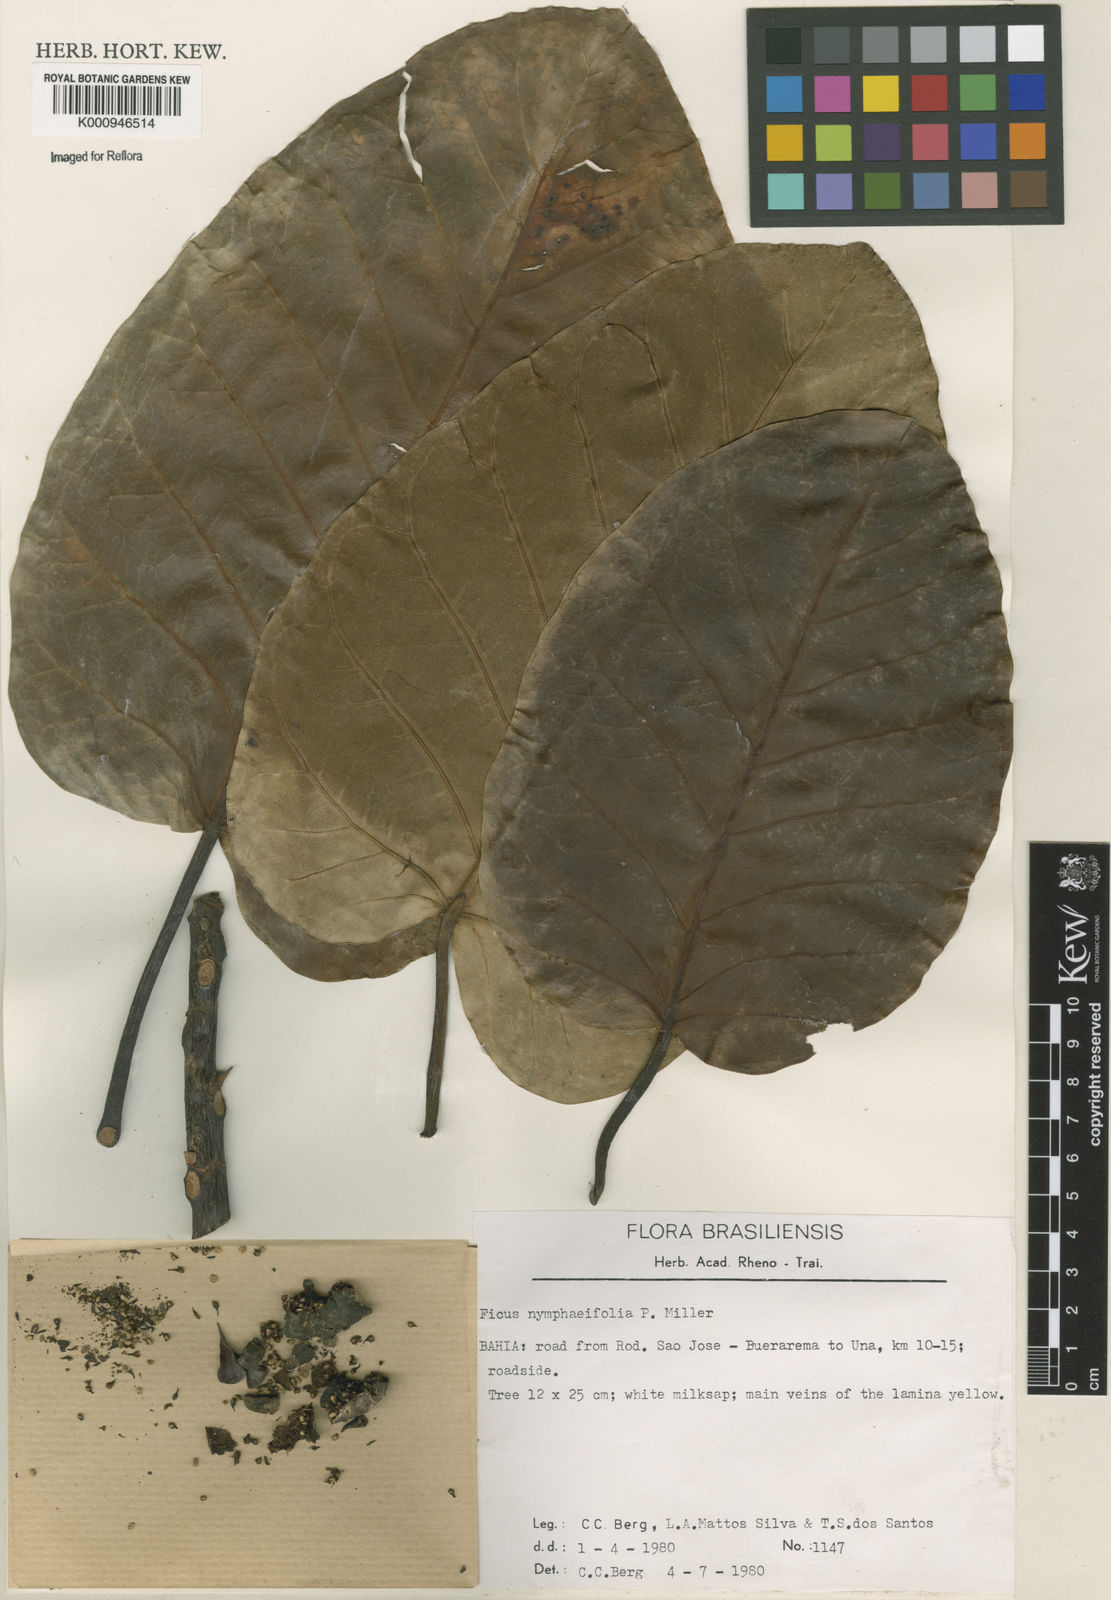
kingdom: Plantae
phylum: Tracheophyta
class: Magnoliopsida
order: Rosales
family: Moraceae
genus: Ficus
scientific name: Ficus nymphaeifolia
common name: Fig
